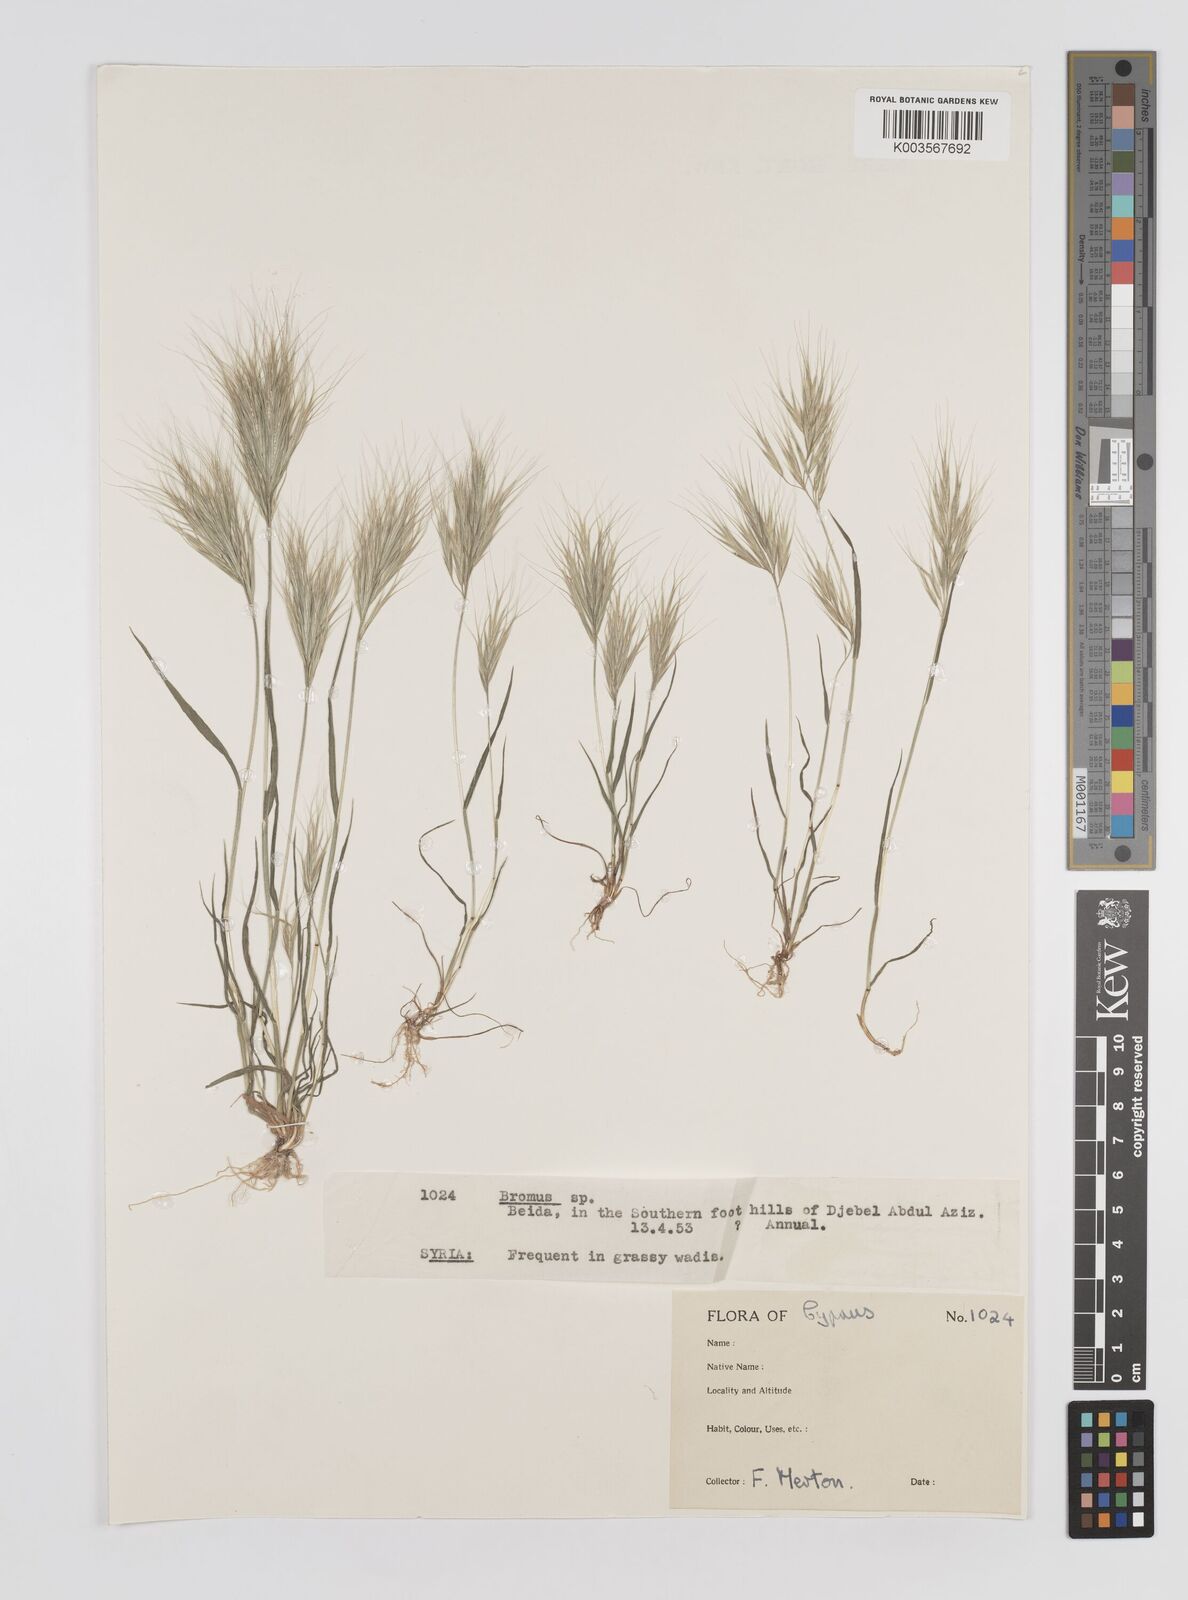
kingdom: Plantae
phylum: Tracheophyta
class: Liliopsida
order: Poales
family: Poaceae
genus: Bromus
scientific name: Bromus
